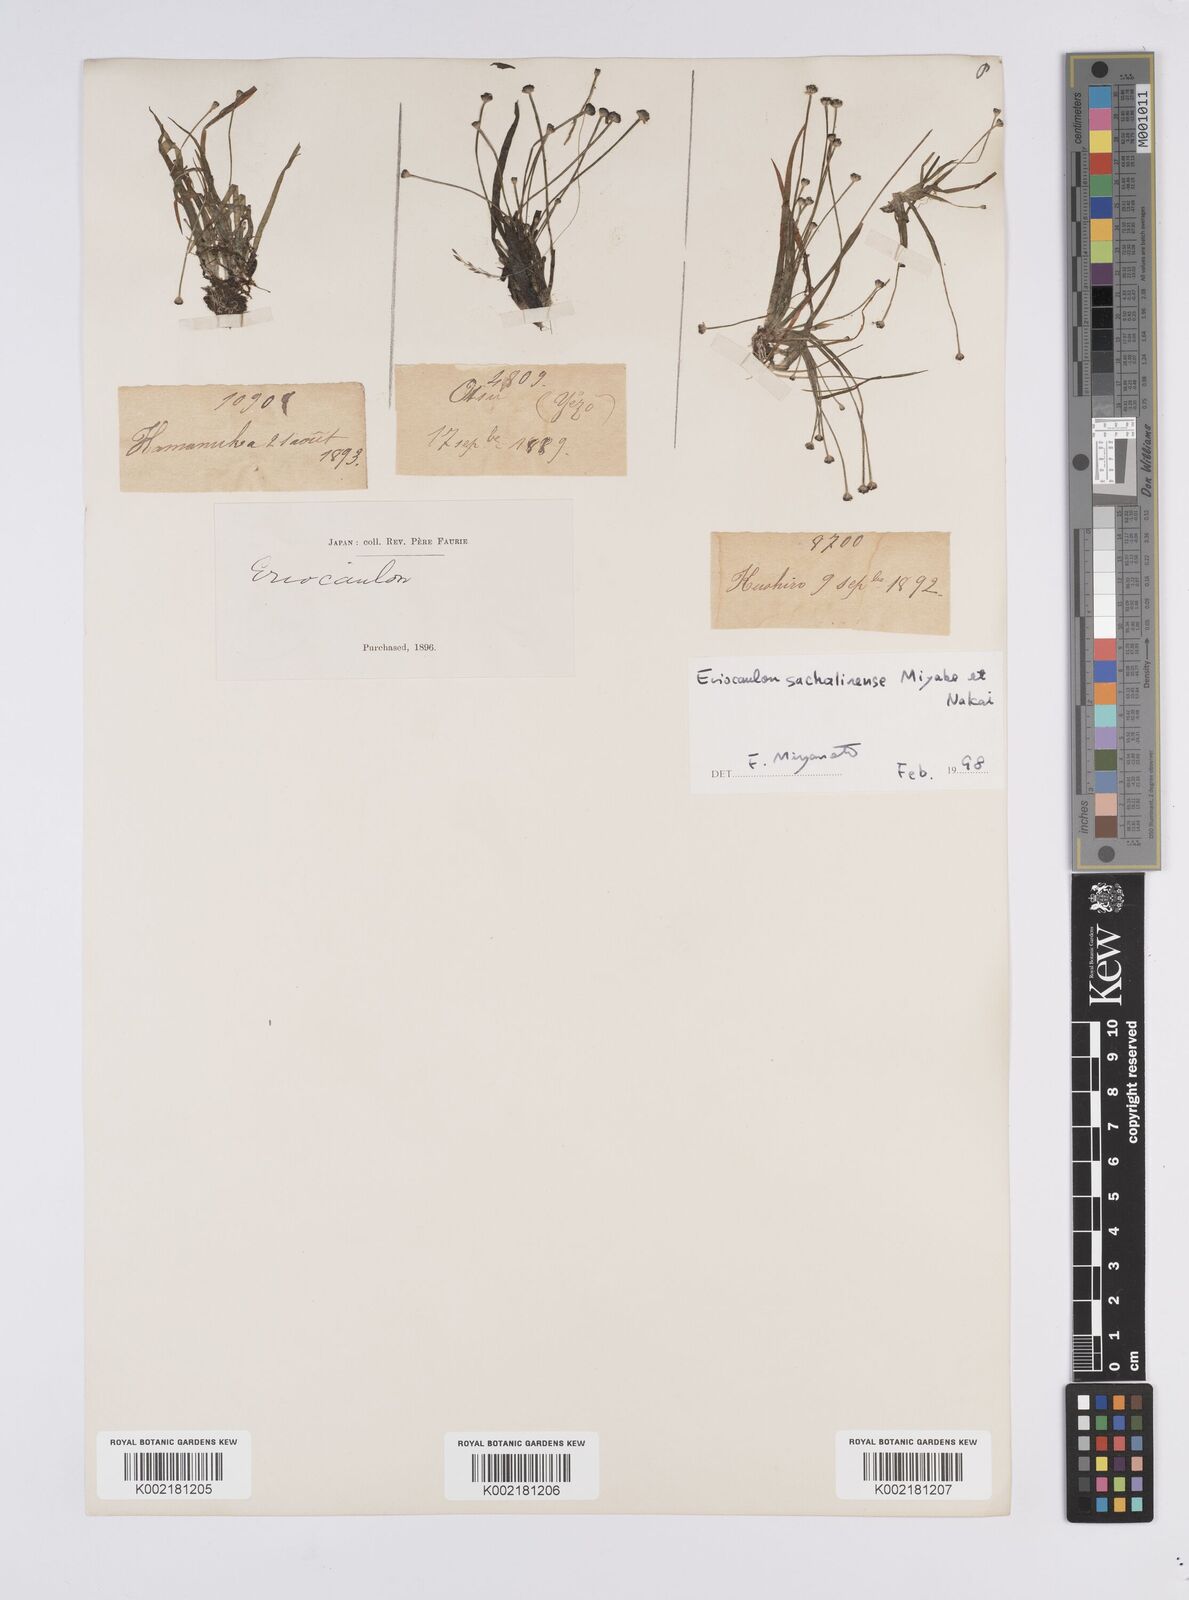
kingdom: Plantae
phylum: Tracheophyta
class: Liliopsida
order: Poales
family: Eriocaulaceae
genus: Eriocaulon
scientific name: Eriocaulon sachalinense
